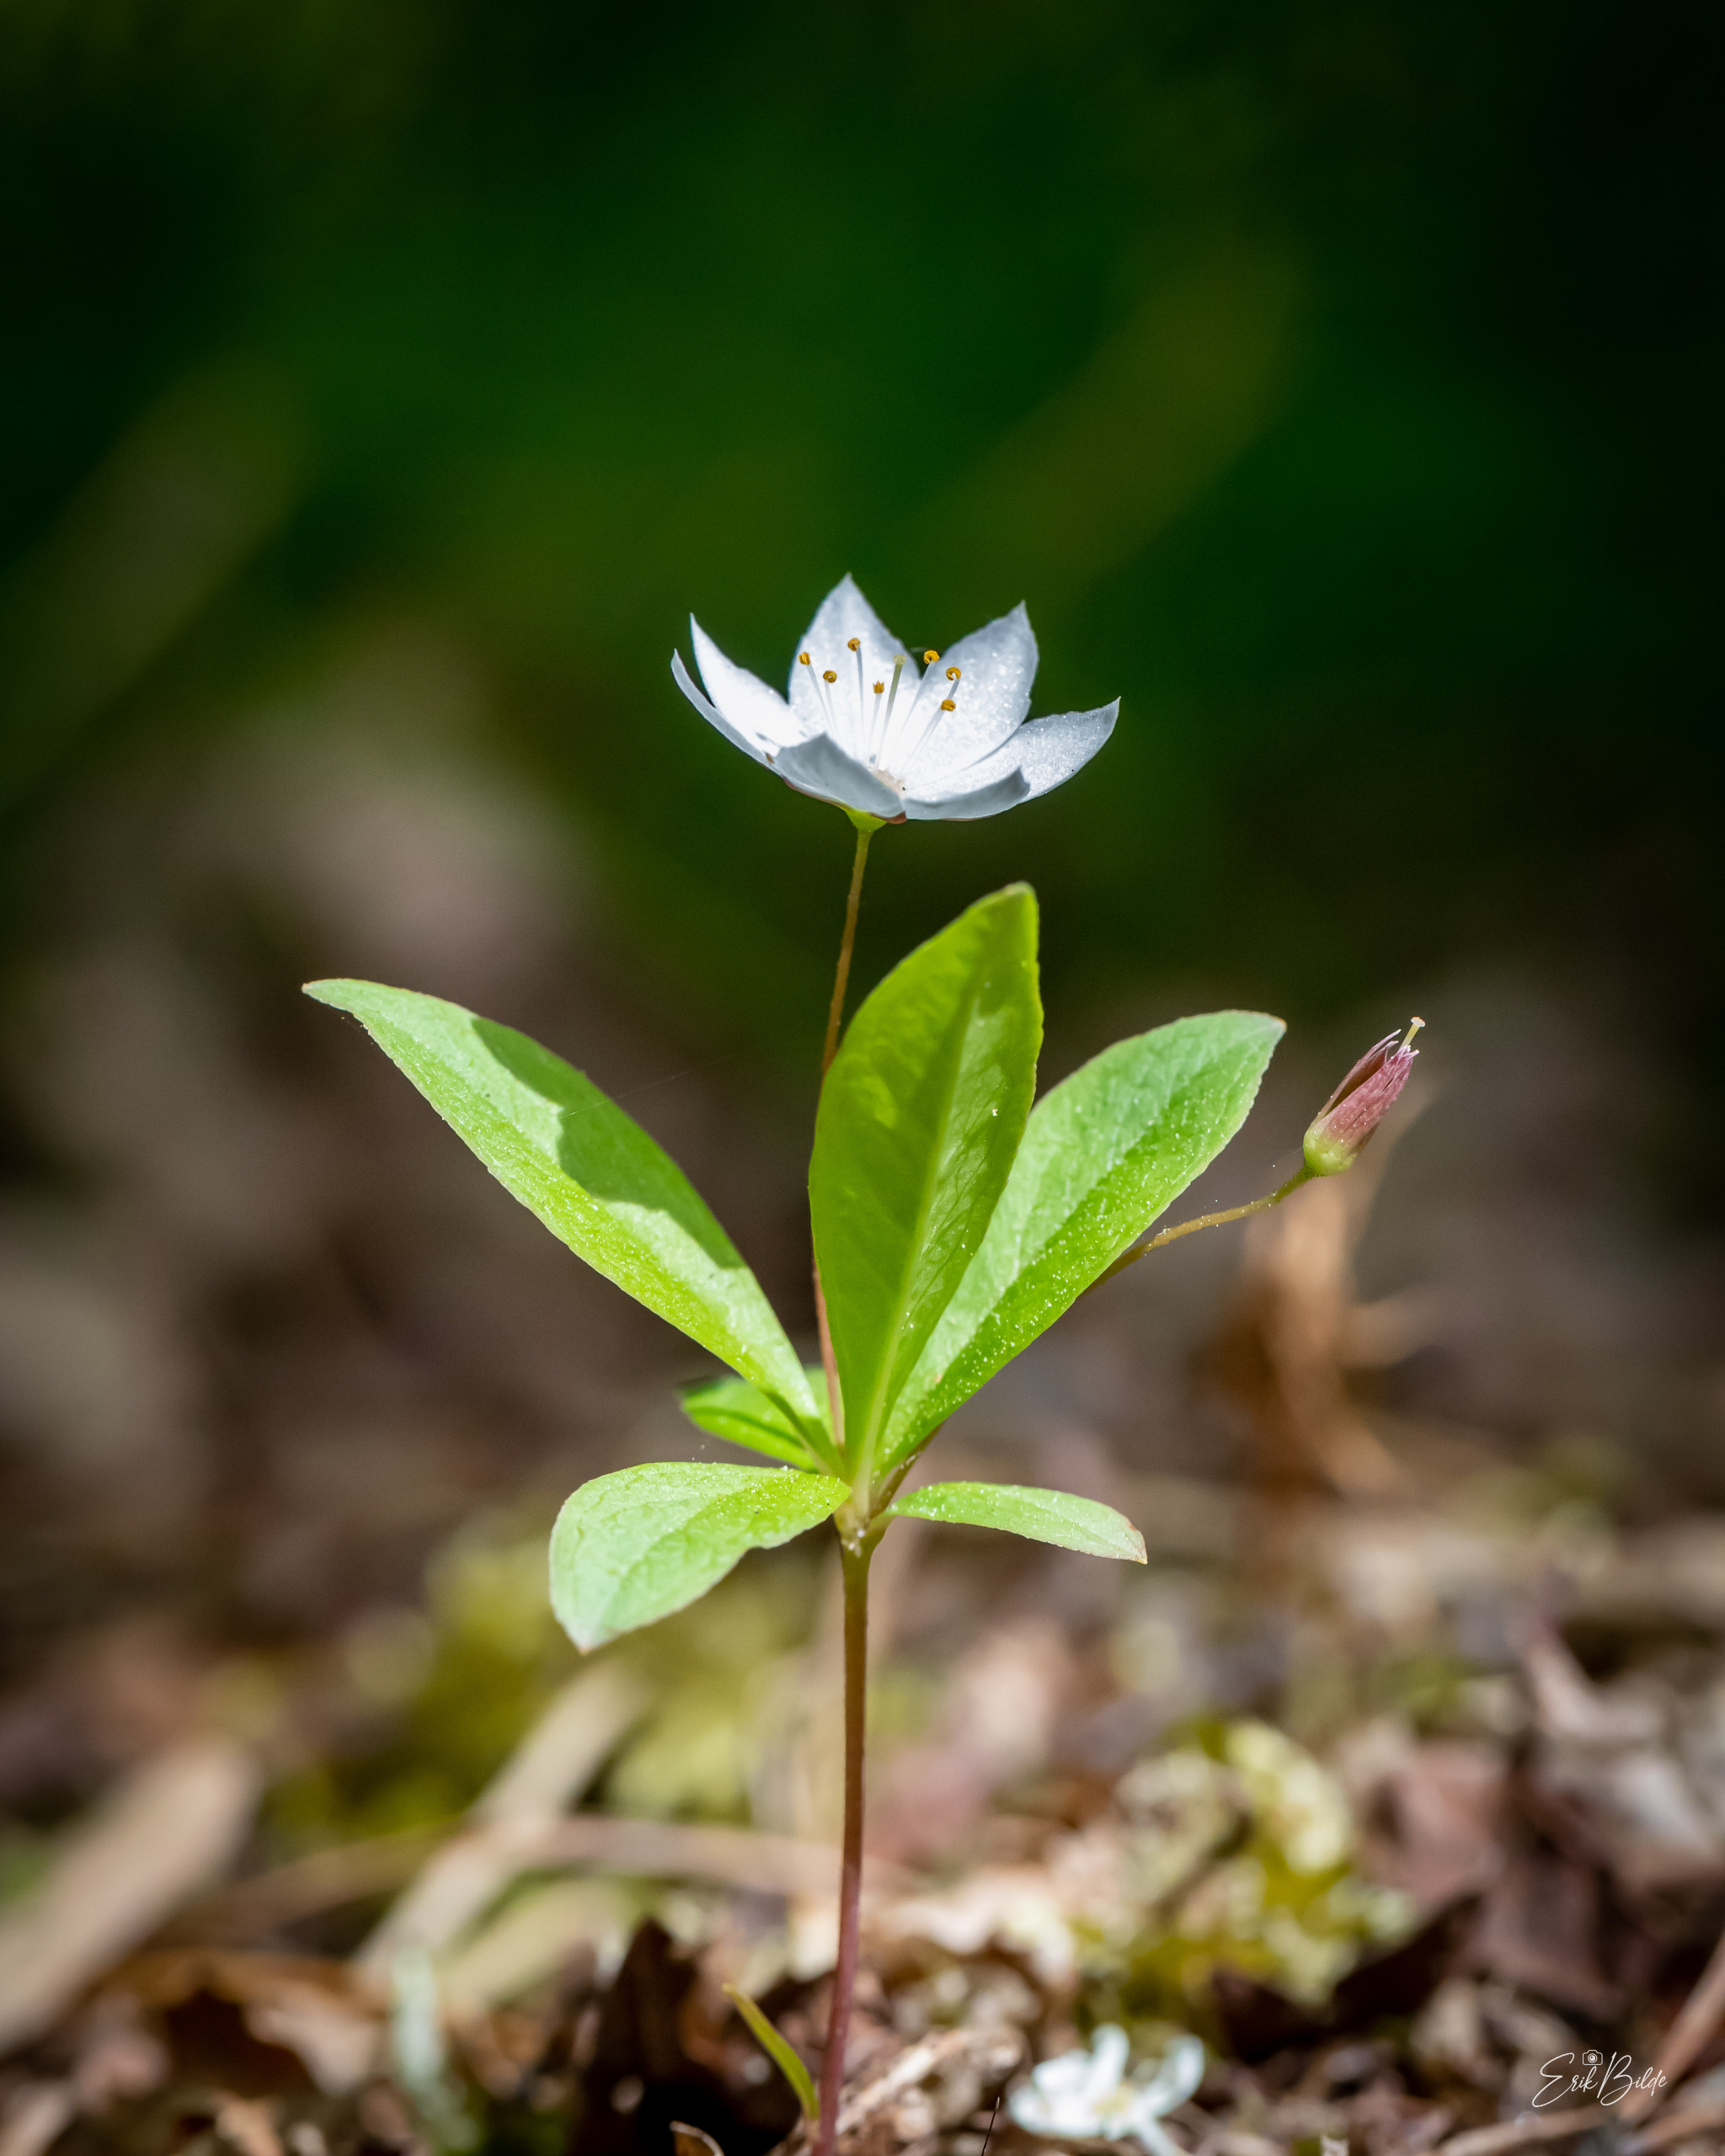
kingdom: Plantae
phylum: Tracheophyta
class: Magnoliopsida
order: Ericales
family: Primulaceae
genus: Lysimachia
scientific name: Lysimachia europaea
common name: Skovstjerne
